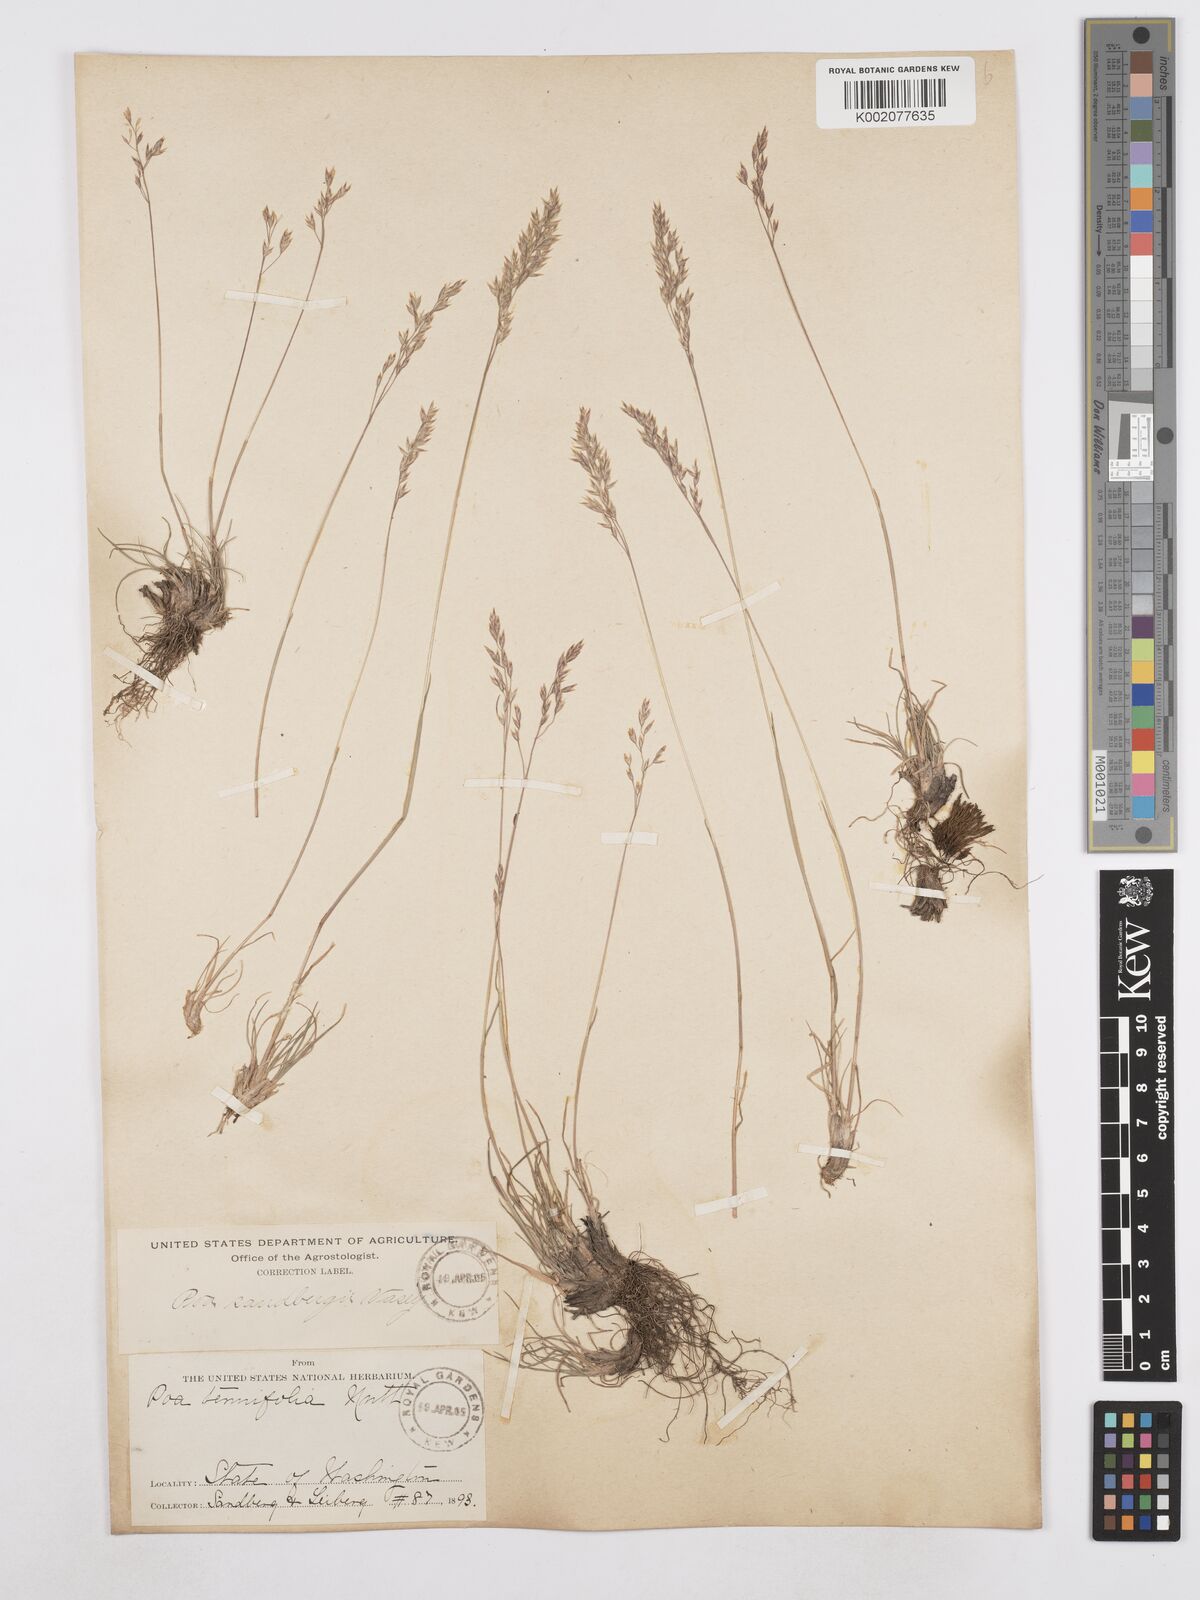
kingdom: Plantae
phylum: Tracheophyta
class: Liliopsida
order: Poales
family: Poaceae
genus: Poa
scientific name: Poa secunda
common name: Sandberg bluegrass
